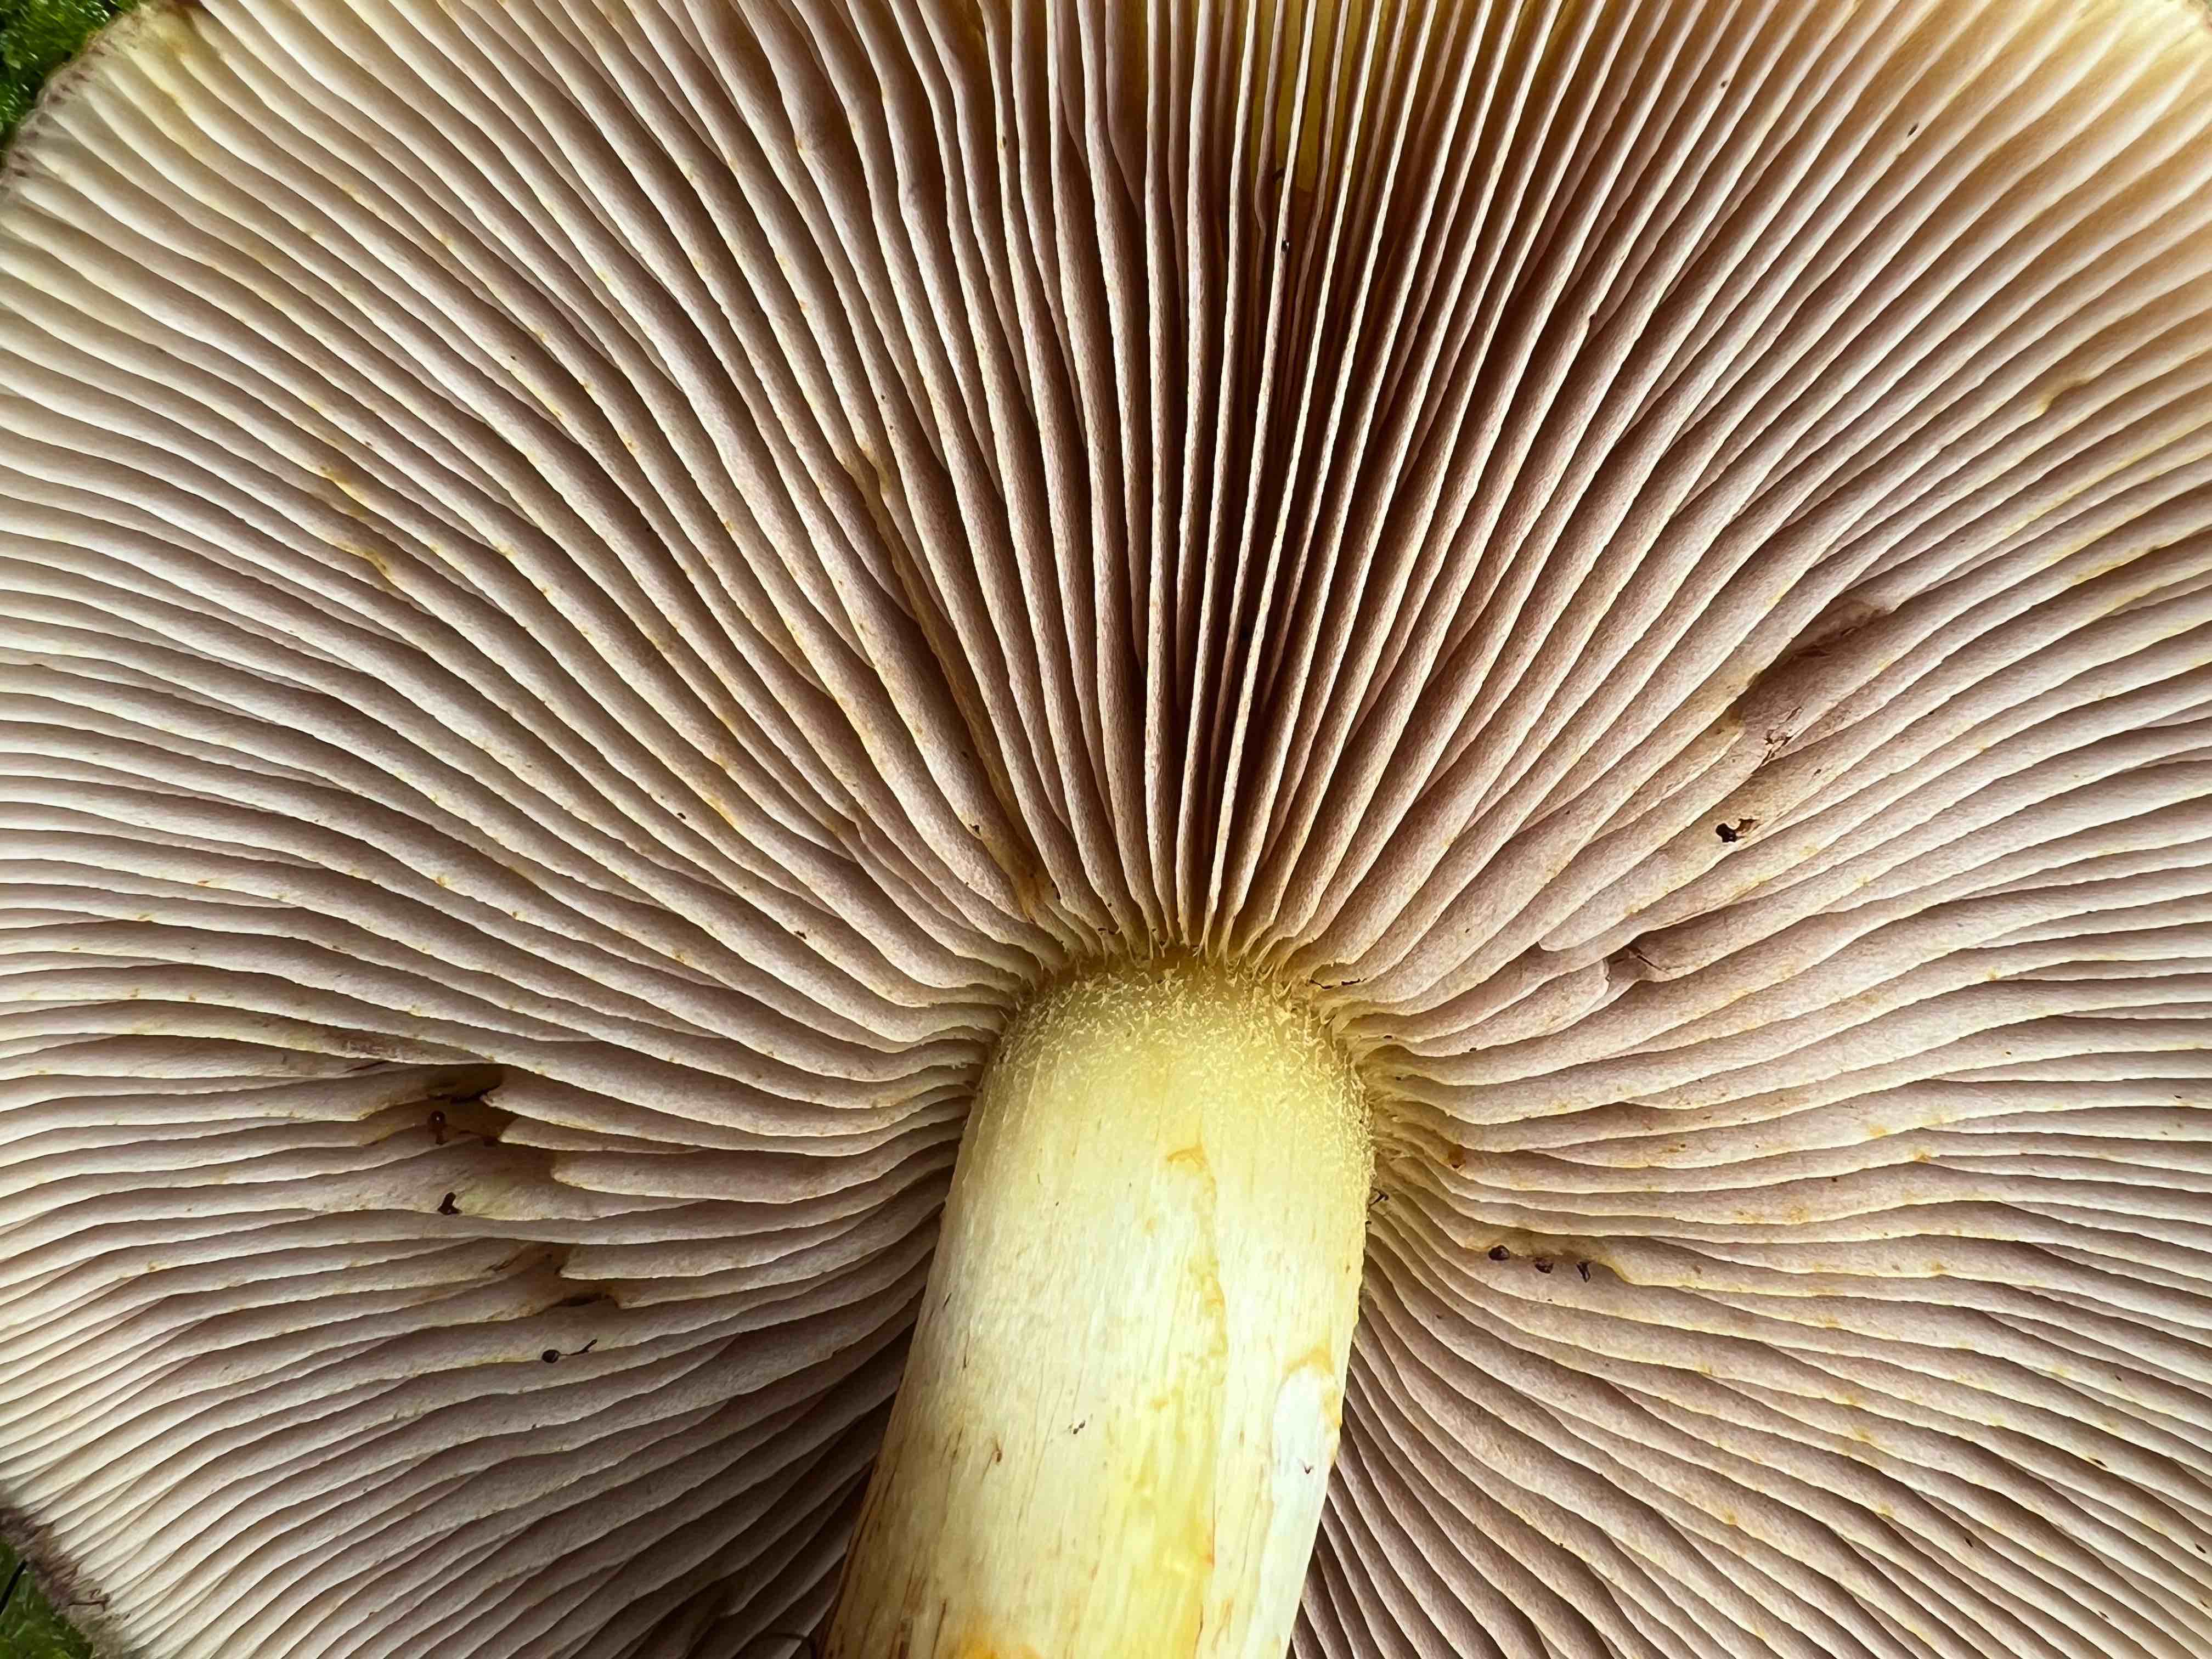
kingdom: Fungi
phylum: Basidiomycota
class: Agaricomycetes
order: Agaricales
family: Strophariaceae
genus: Pholiota
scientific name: Pholiota adiposa
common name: højtsiddende skælhat
